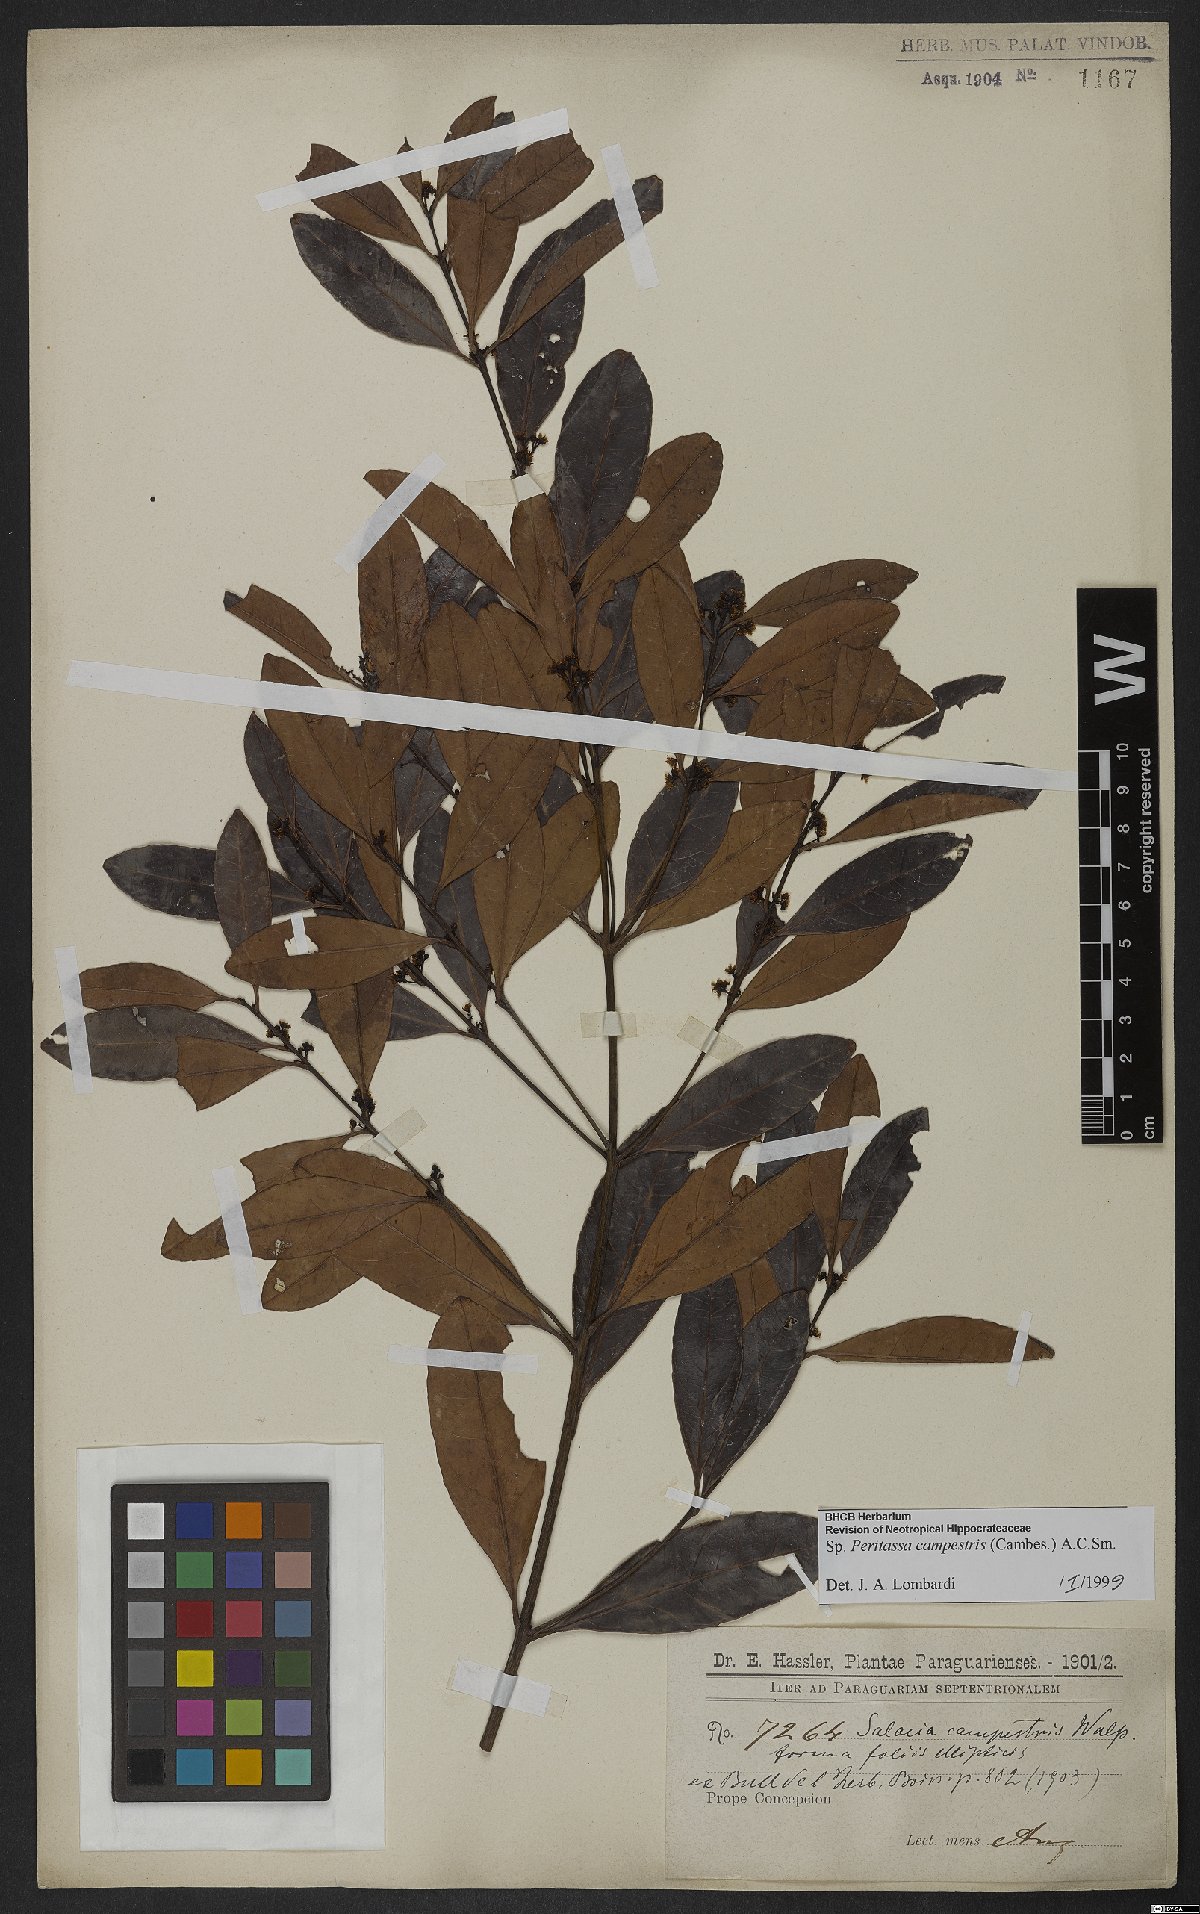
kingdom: Plantae
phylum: Tracheophyta
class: Magnoliopsida
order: Celastrales
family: Celastraceae
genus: Peritassa
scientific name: Peritassa campestris
